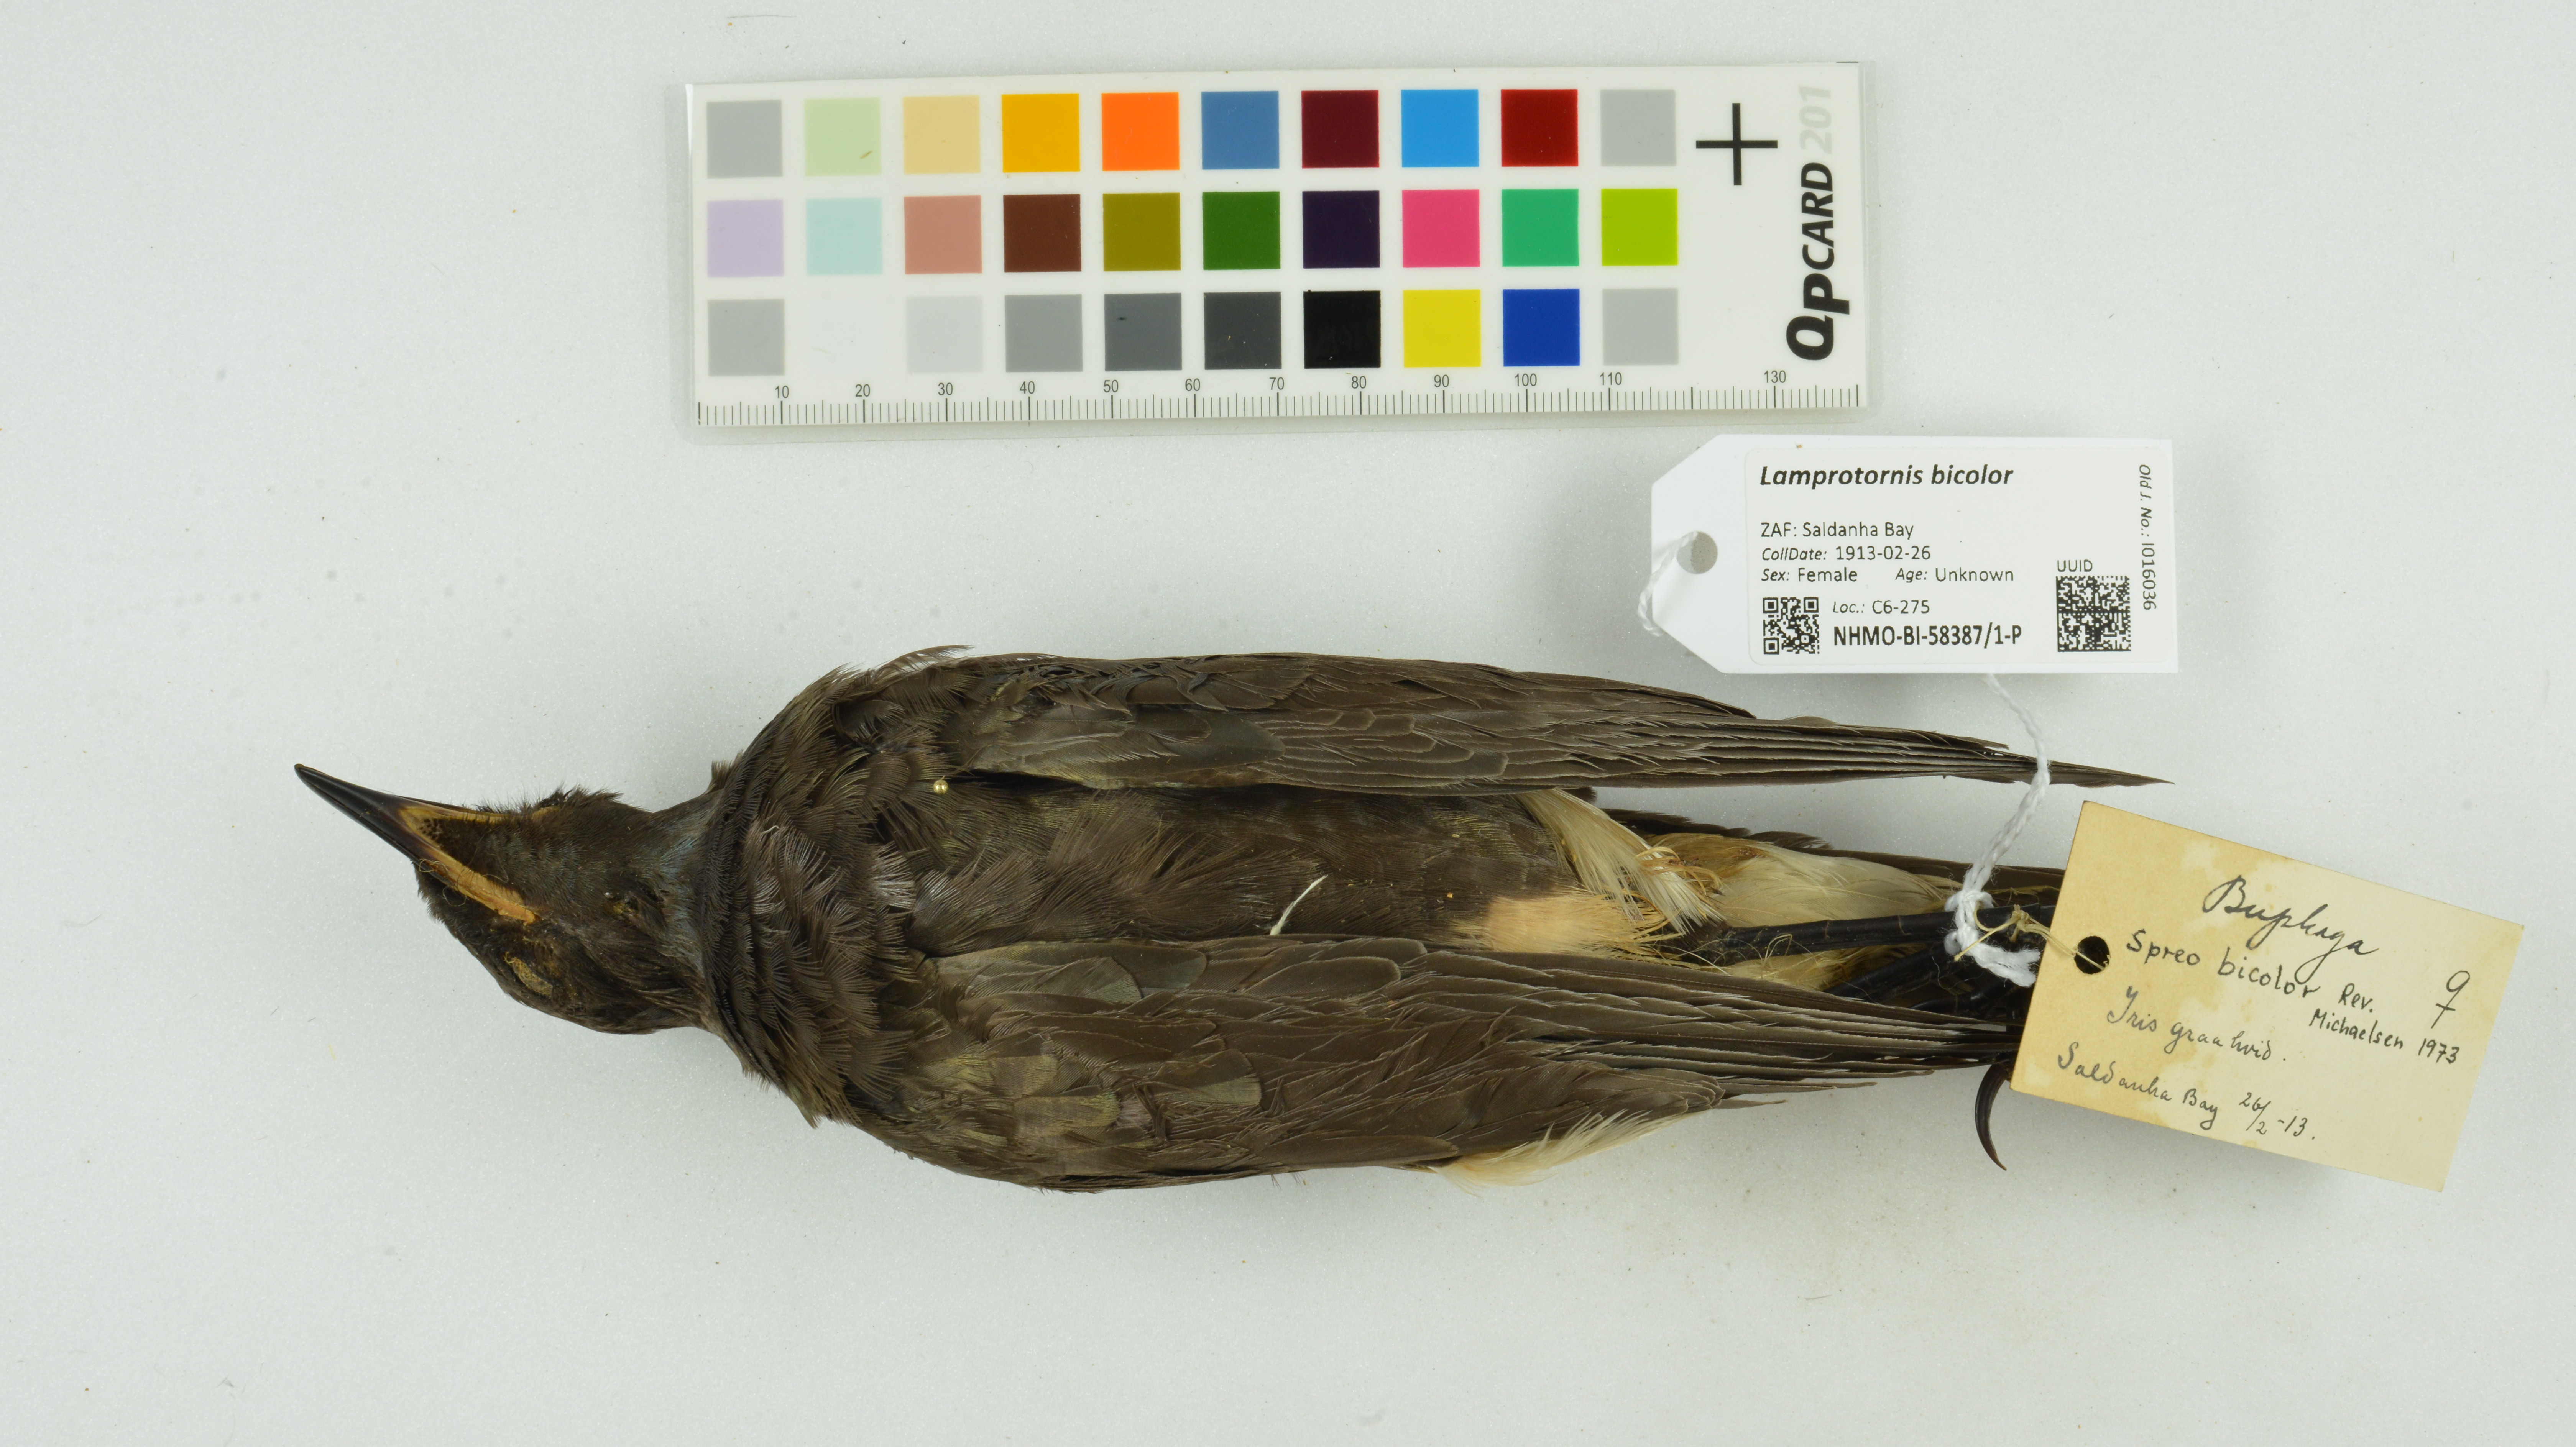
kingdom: Animalia
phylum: Chordata
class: Aves
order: Passeriformes
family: Sturnidae
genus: Lamprotornis
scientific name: Lamprotornis bicolor
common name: Pied starling
